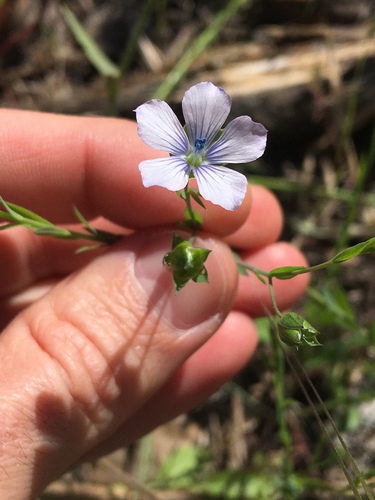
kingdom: Plantae
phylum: Tracheophyta
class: Magnoliopsida
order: Malpighiales
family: Linaceae
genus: Linum
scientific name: Linum bienne
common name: Pale flax
